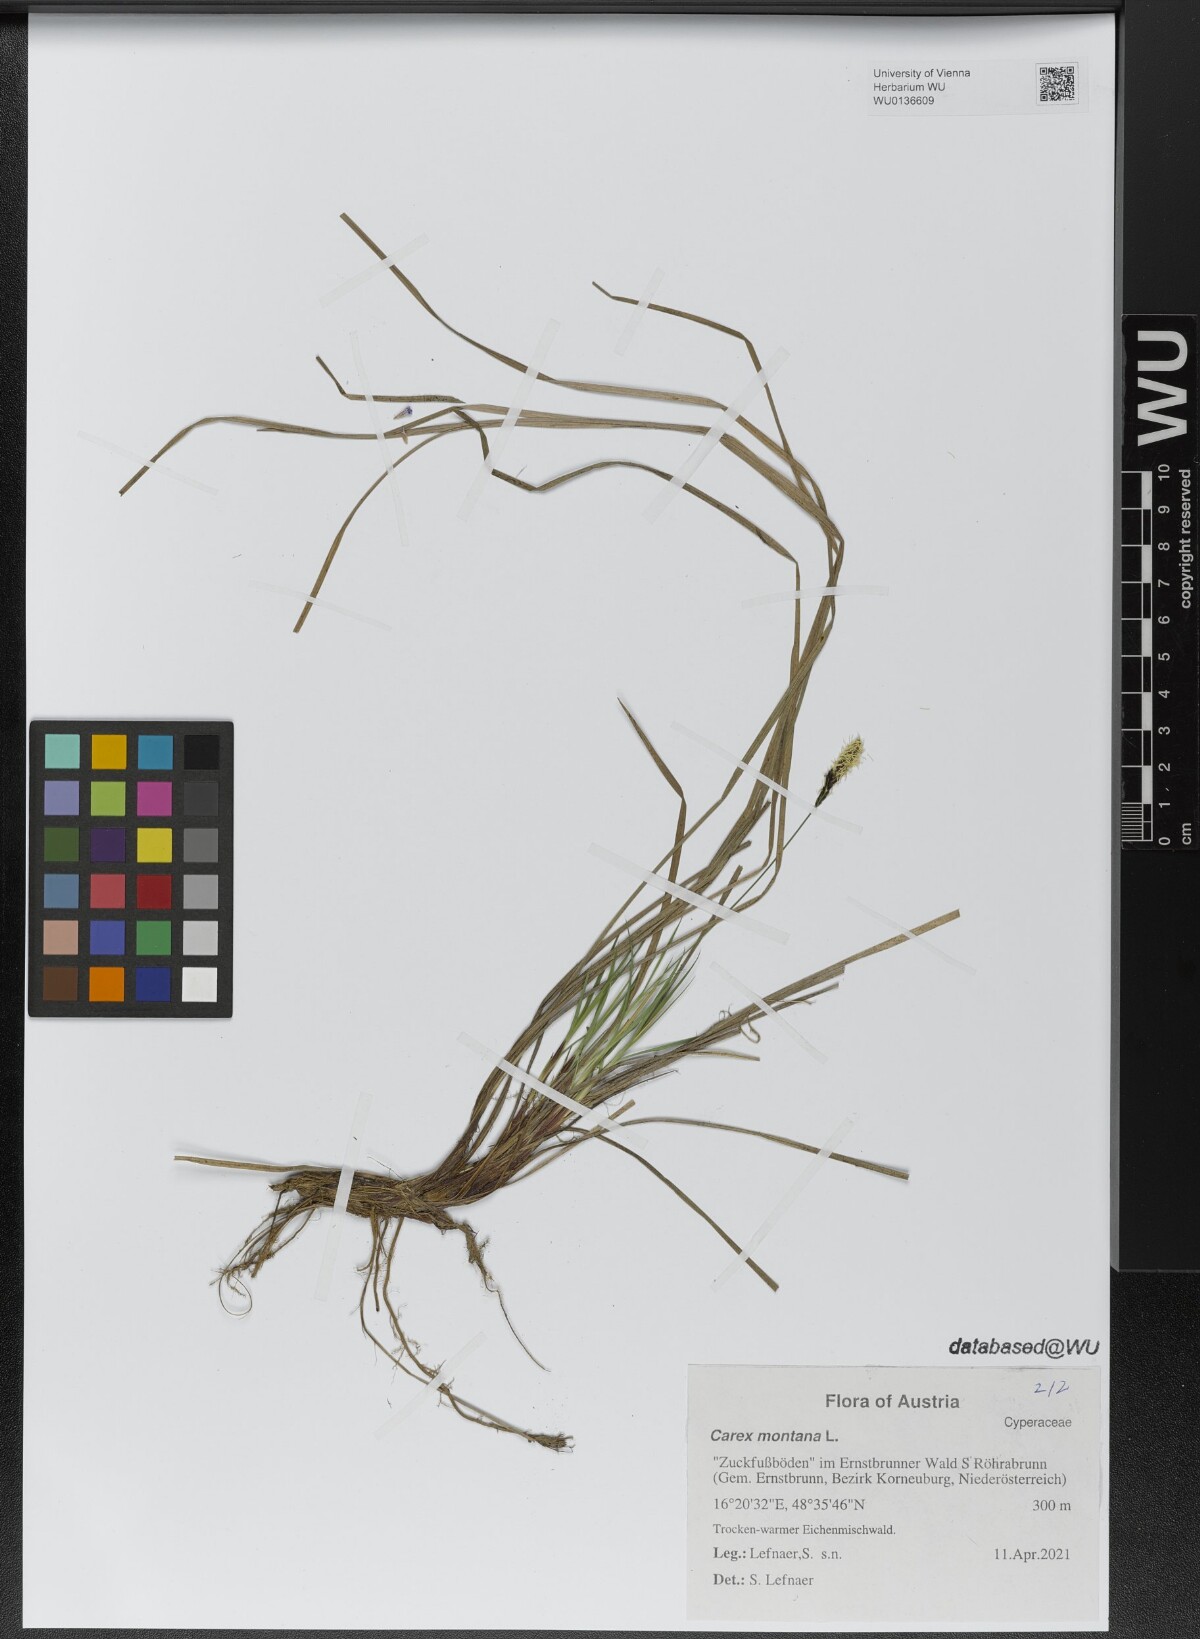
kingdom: Plantae
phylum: Tracheophyta
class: Liliopsida
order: Poales
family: Cyperaceae
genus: Carex
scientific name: Carex montana
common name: Soft-leaved sedge
